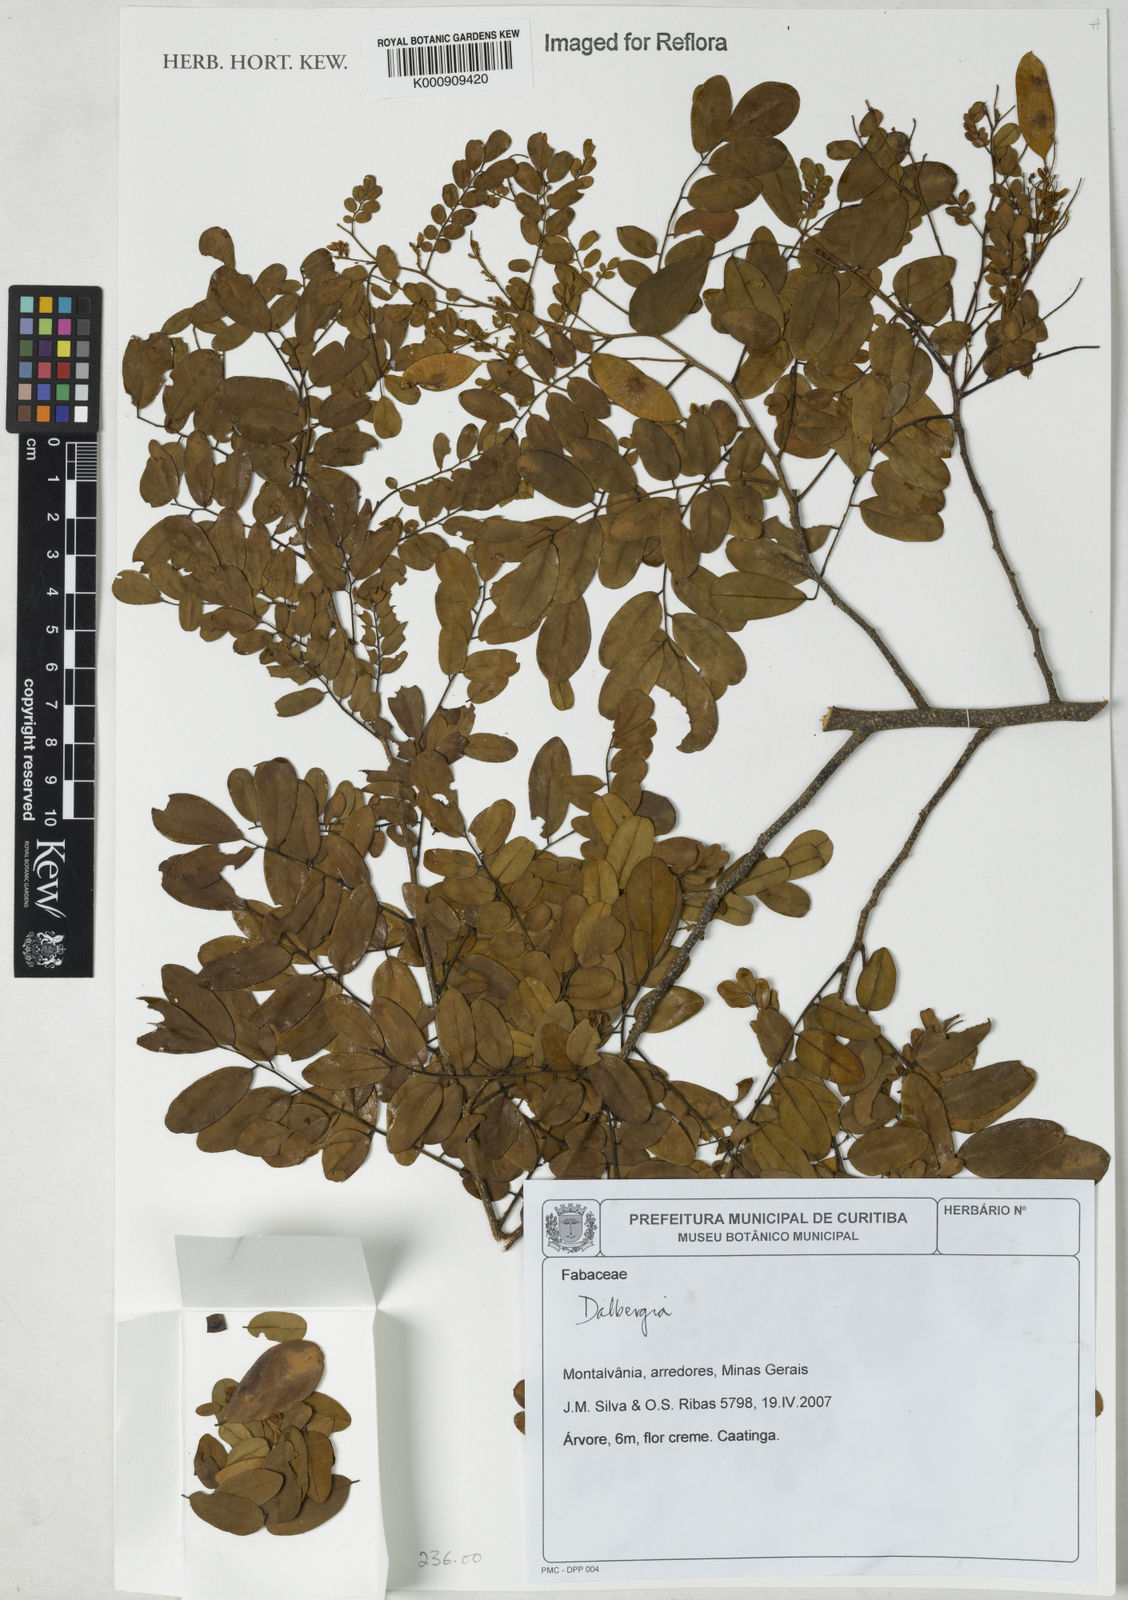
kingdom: Plantae
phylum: Tracheophyta
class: Magnoliopsida
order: Fabales
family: Fabaceae
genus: Dalbergia
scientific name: Dalbergia
